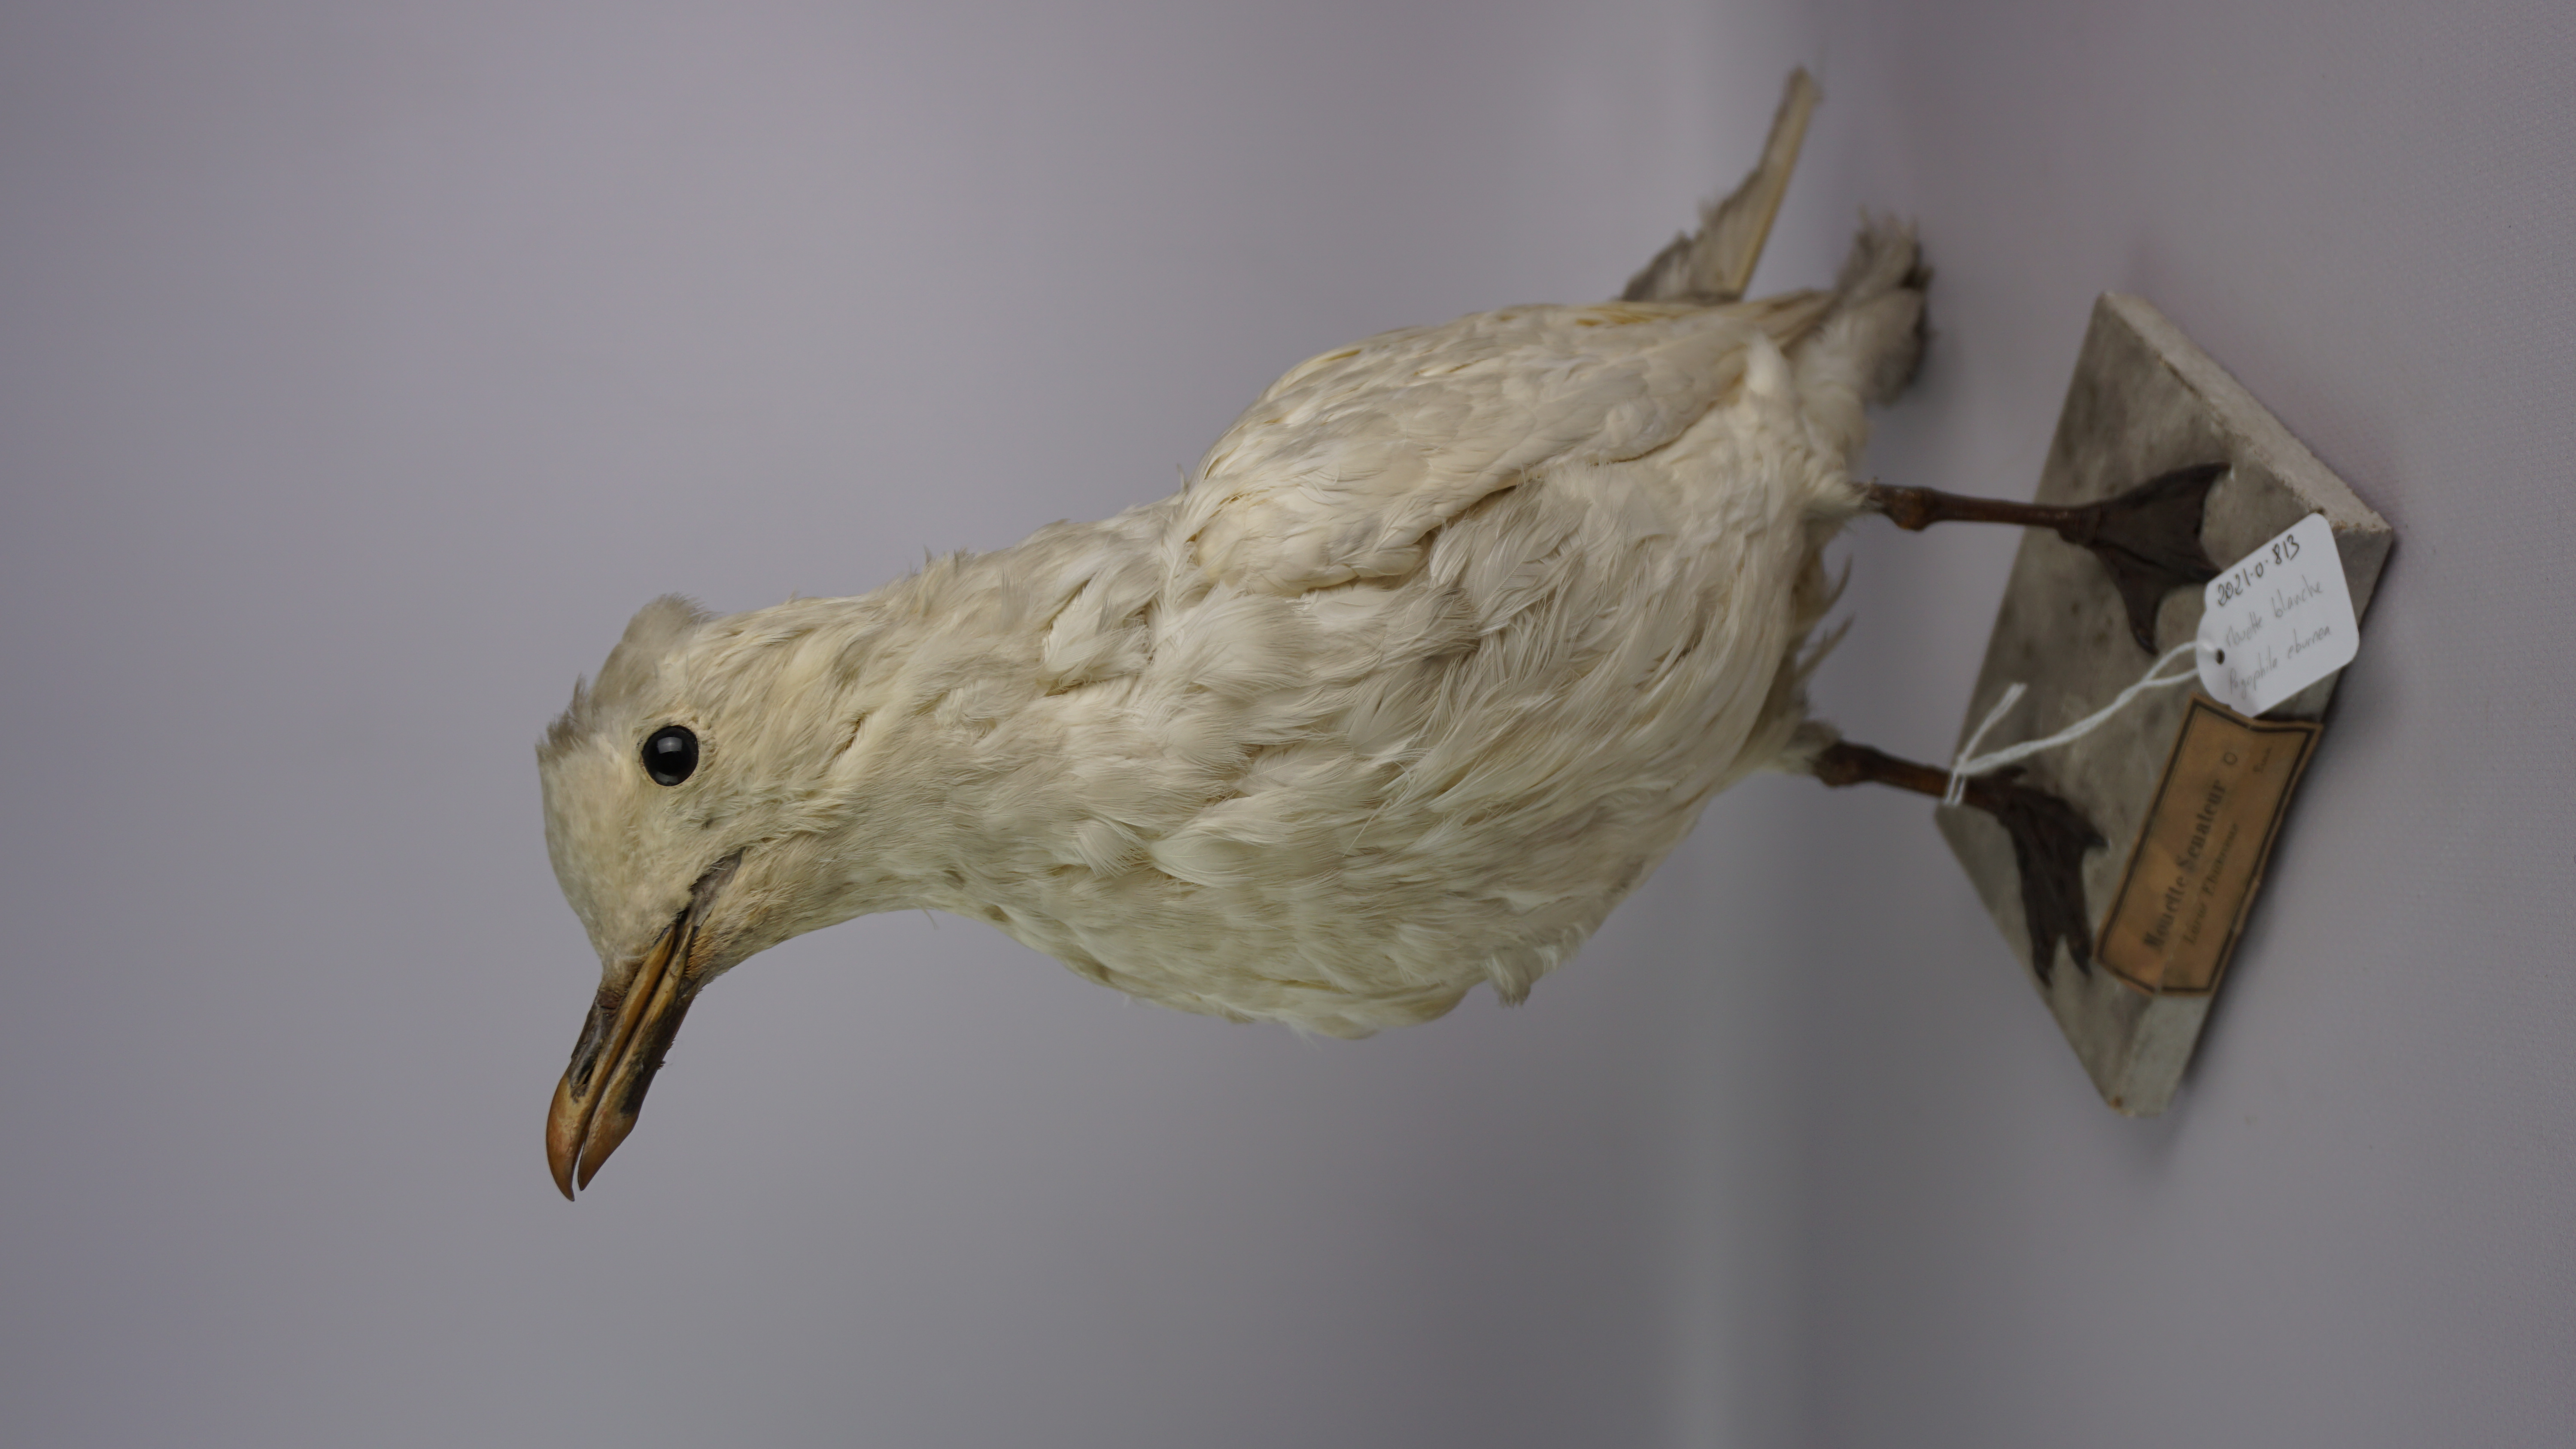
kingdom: Animalia
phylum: Chordata
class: Aves
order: Charadriiformes
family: Laridae
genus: Pagophila
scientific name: Pagophila eburnea
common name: Ivory gull
